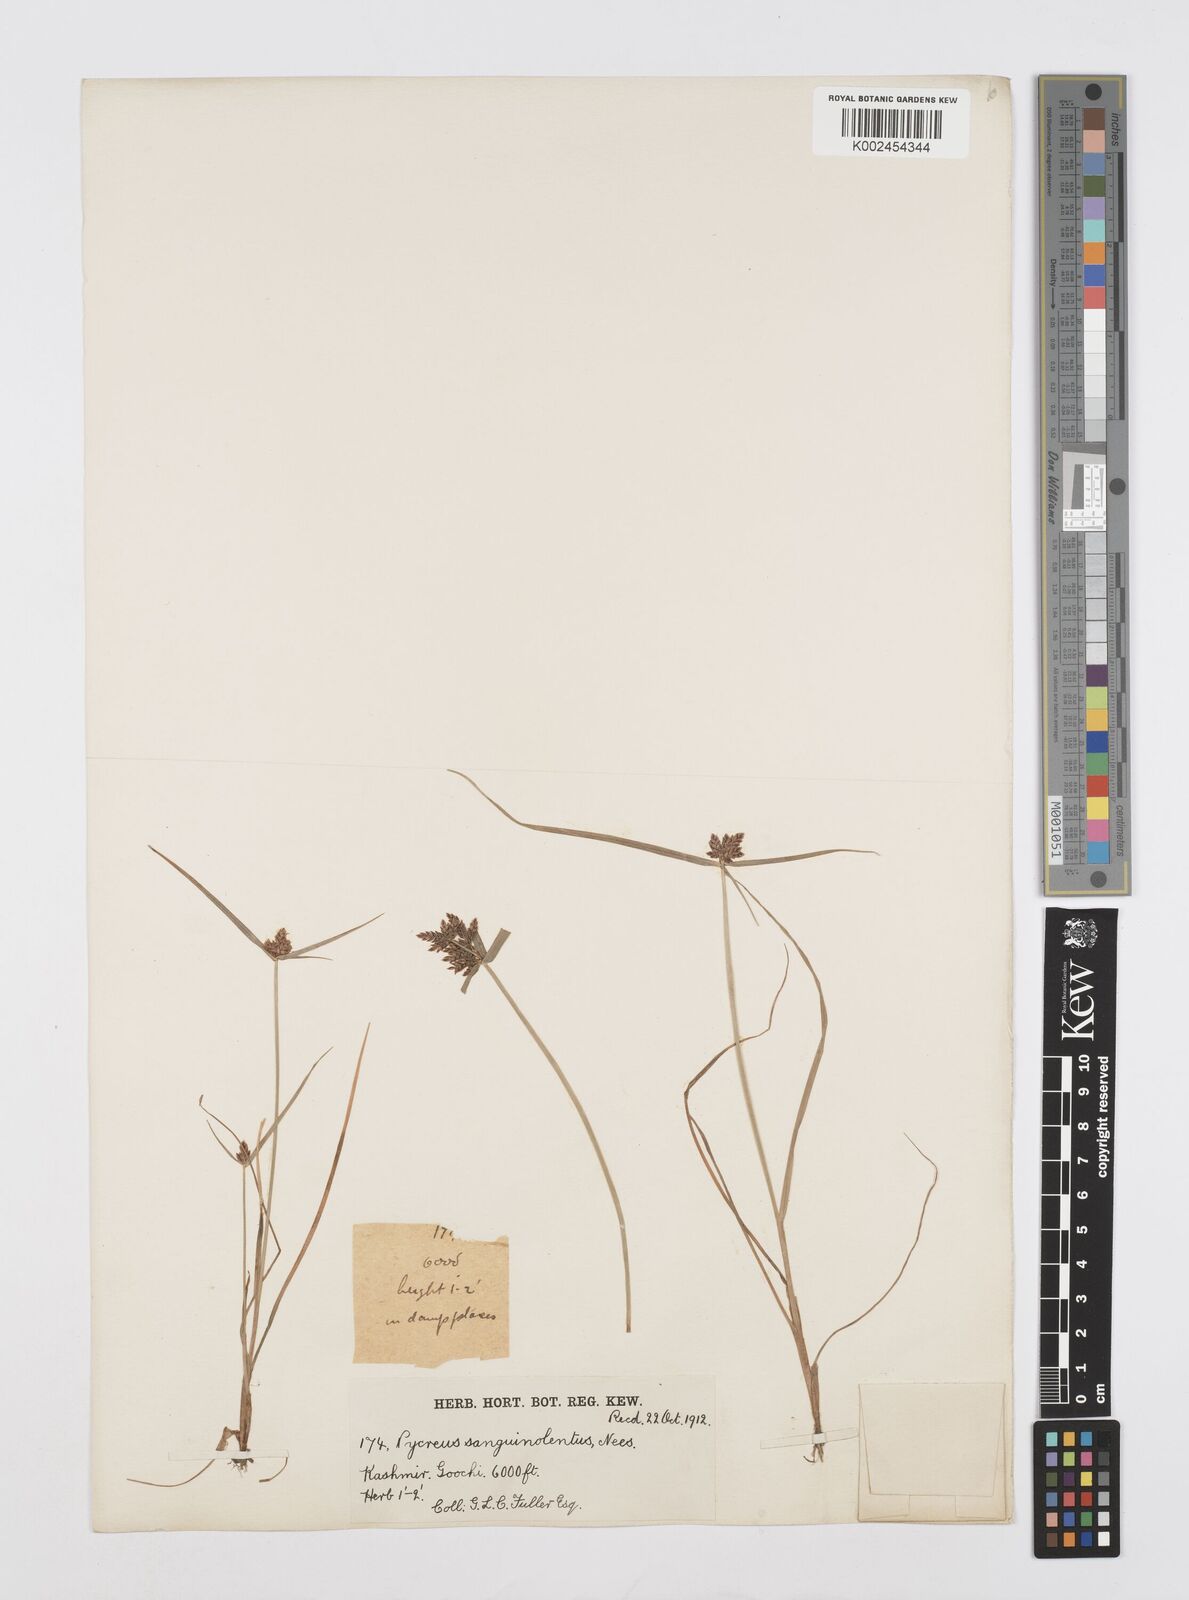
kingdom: Plantae
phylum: Tracheophyta
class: Liliopsida
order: Poales
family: Cyperaceae
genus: Cyperus
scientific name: Cyperus sanguinolentus
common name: Purpleglume flatsedge
